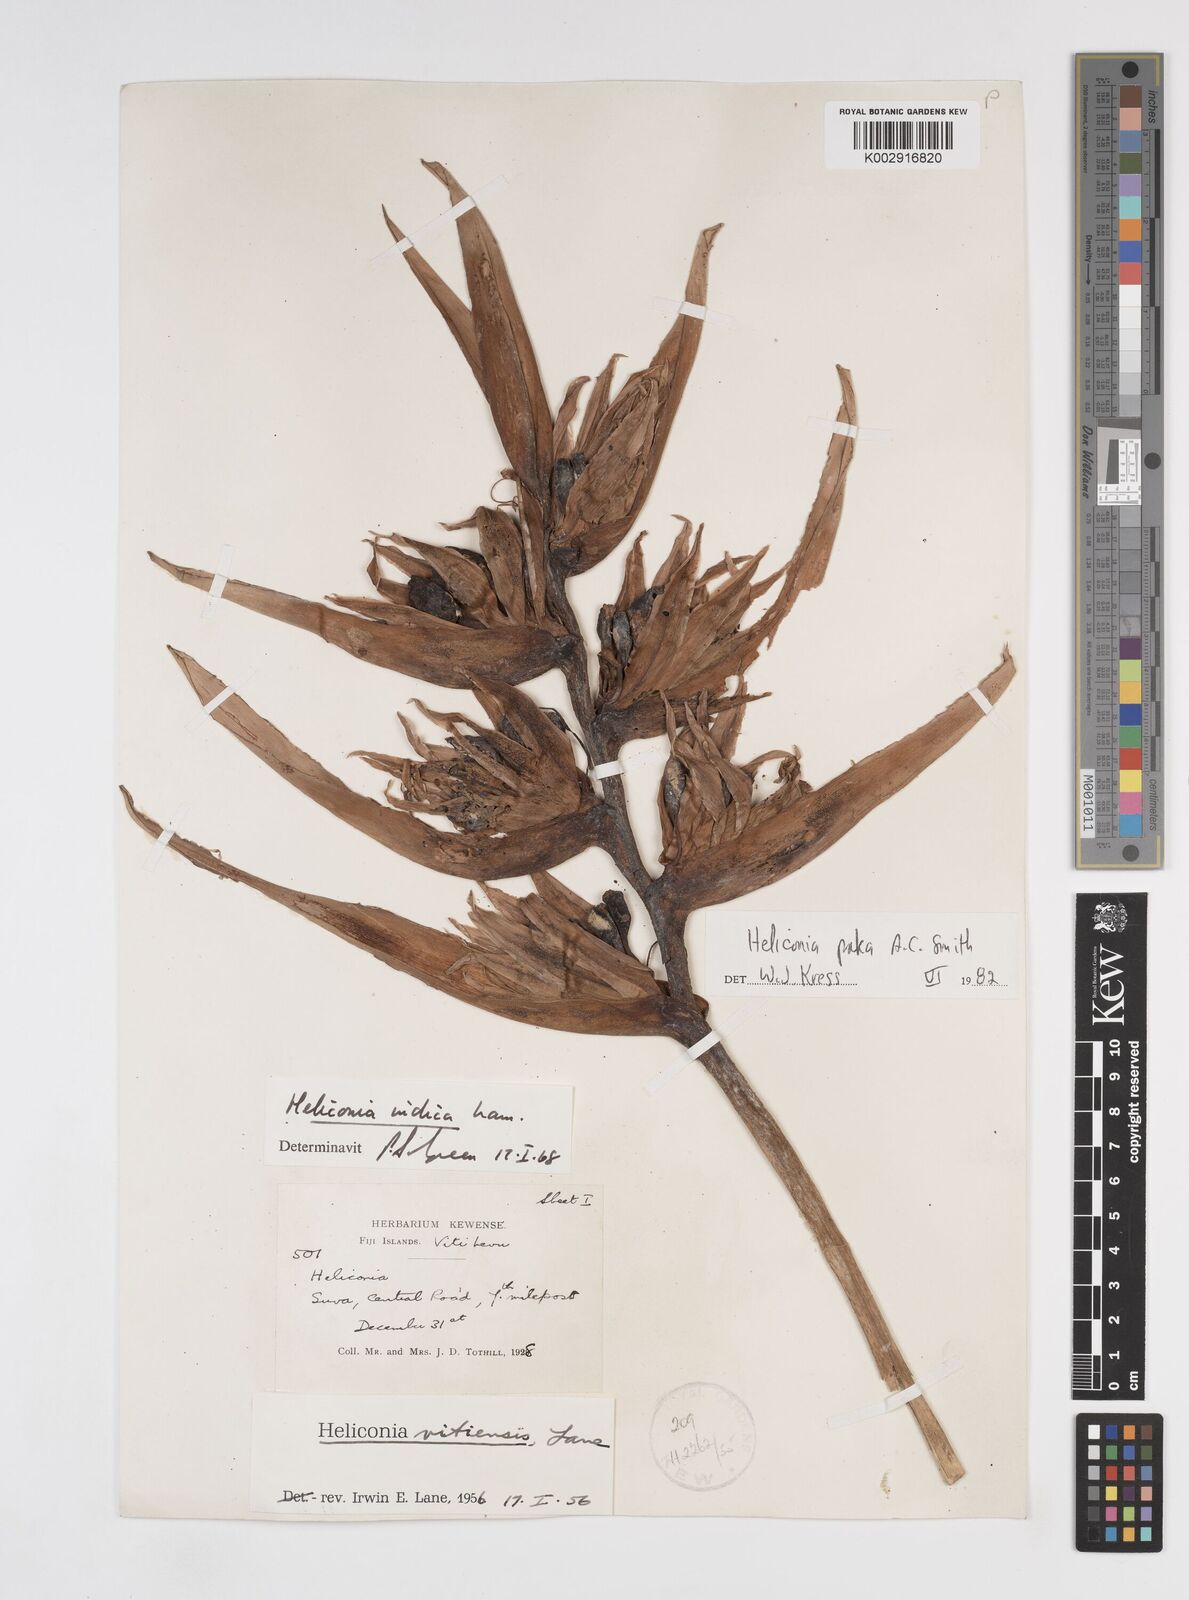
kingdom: Plantae
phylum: Tracheophyta
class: Liliopsida
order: Zingiberales
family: Heliconiaceae
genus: Heliconia
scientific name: Heliconia paka
